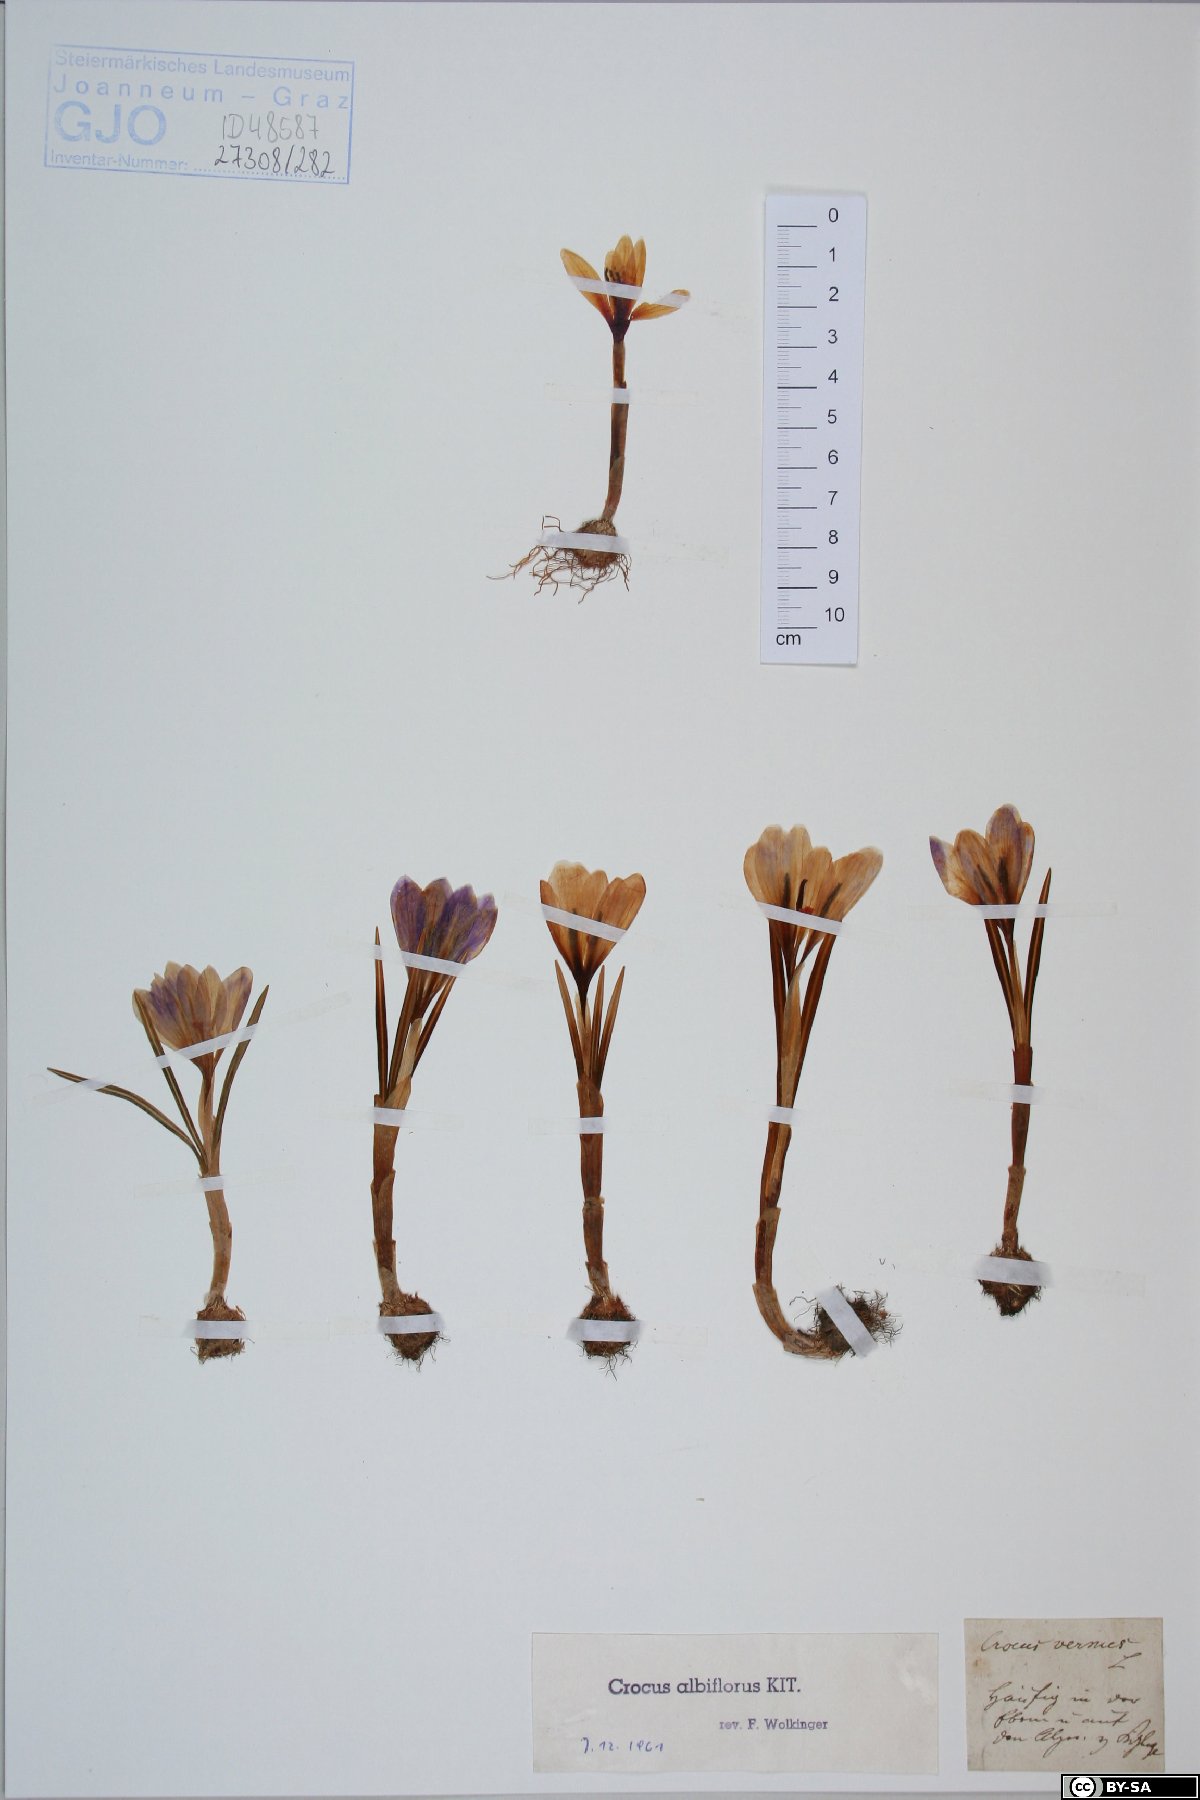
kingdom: Plantae
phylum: Tracheophyta
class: Liliopsida
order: Asparagales
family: Iridaceae
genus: Crocus
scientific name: Crocus vernus
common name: Spring crocus
